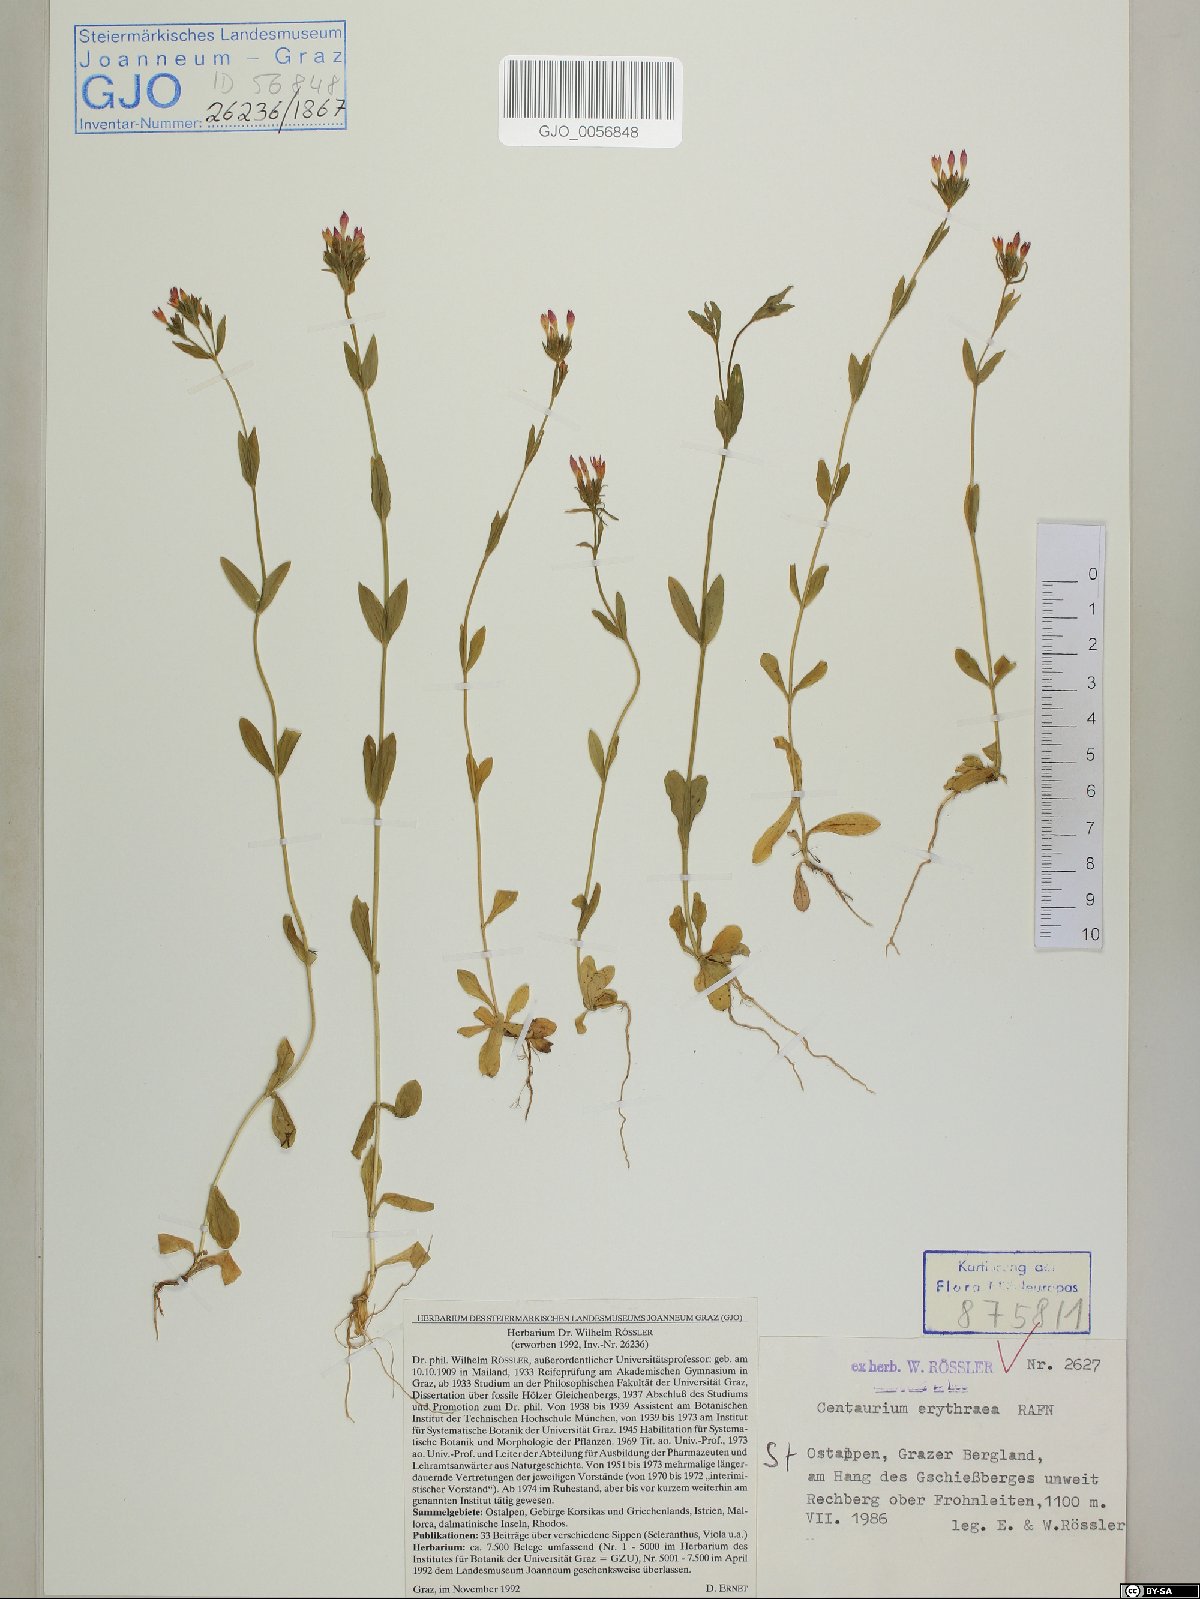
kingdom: Plantae
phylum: Tracheophyta
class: Magnoliopsida
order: Gentianales
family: Gentianaceae
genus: Centaurium
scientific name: Centaurium erythraea
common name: Common centaury
